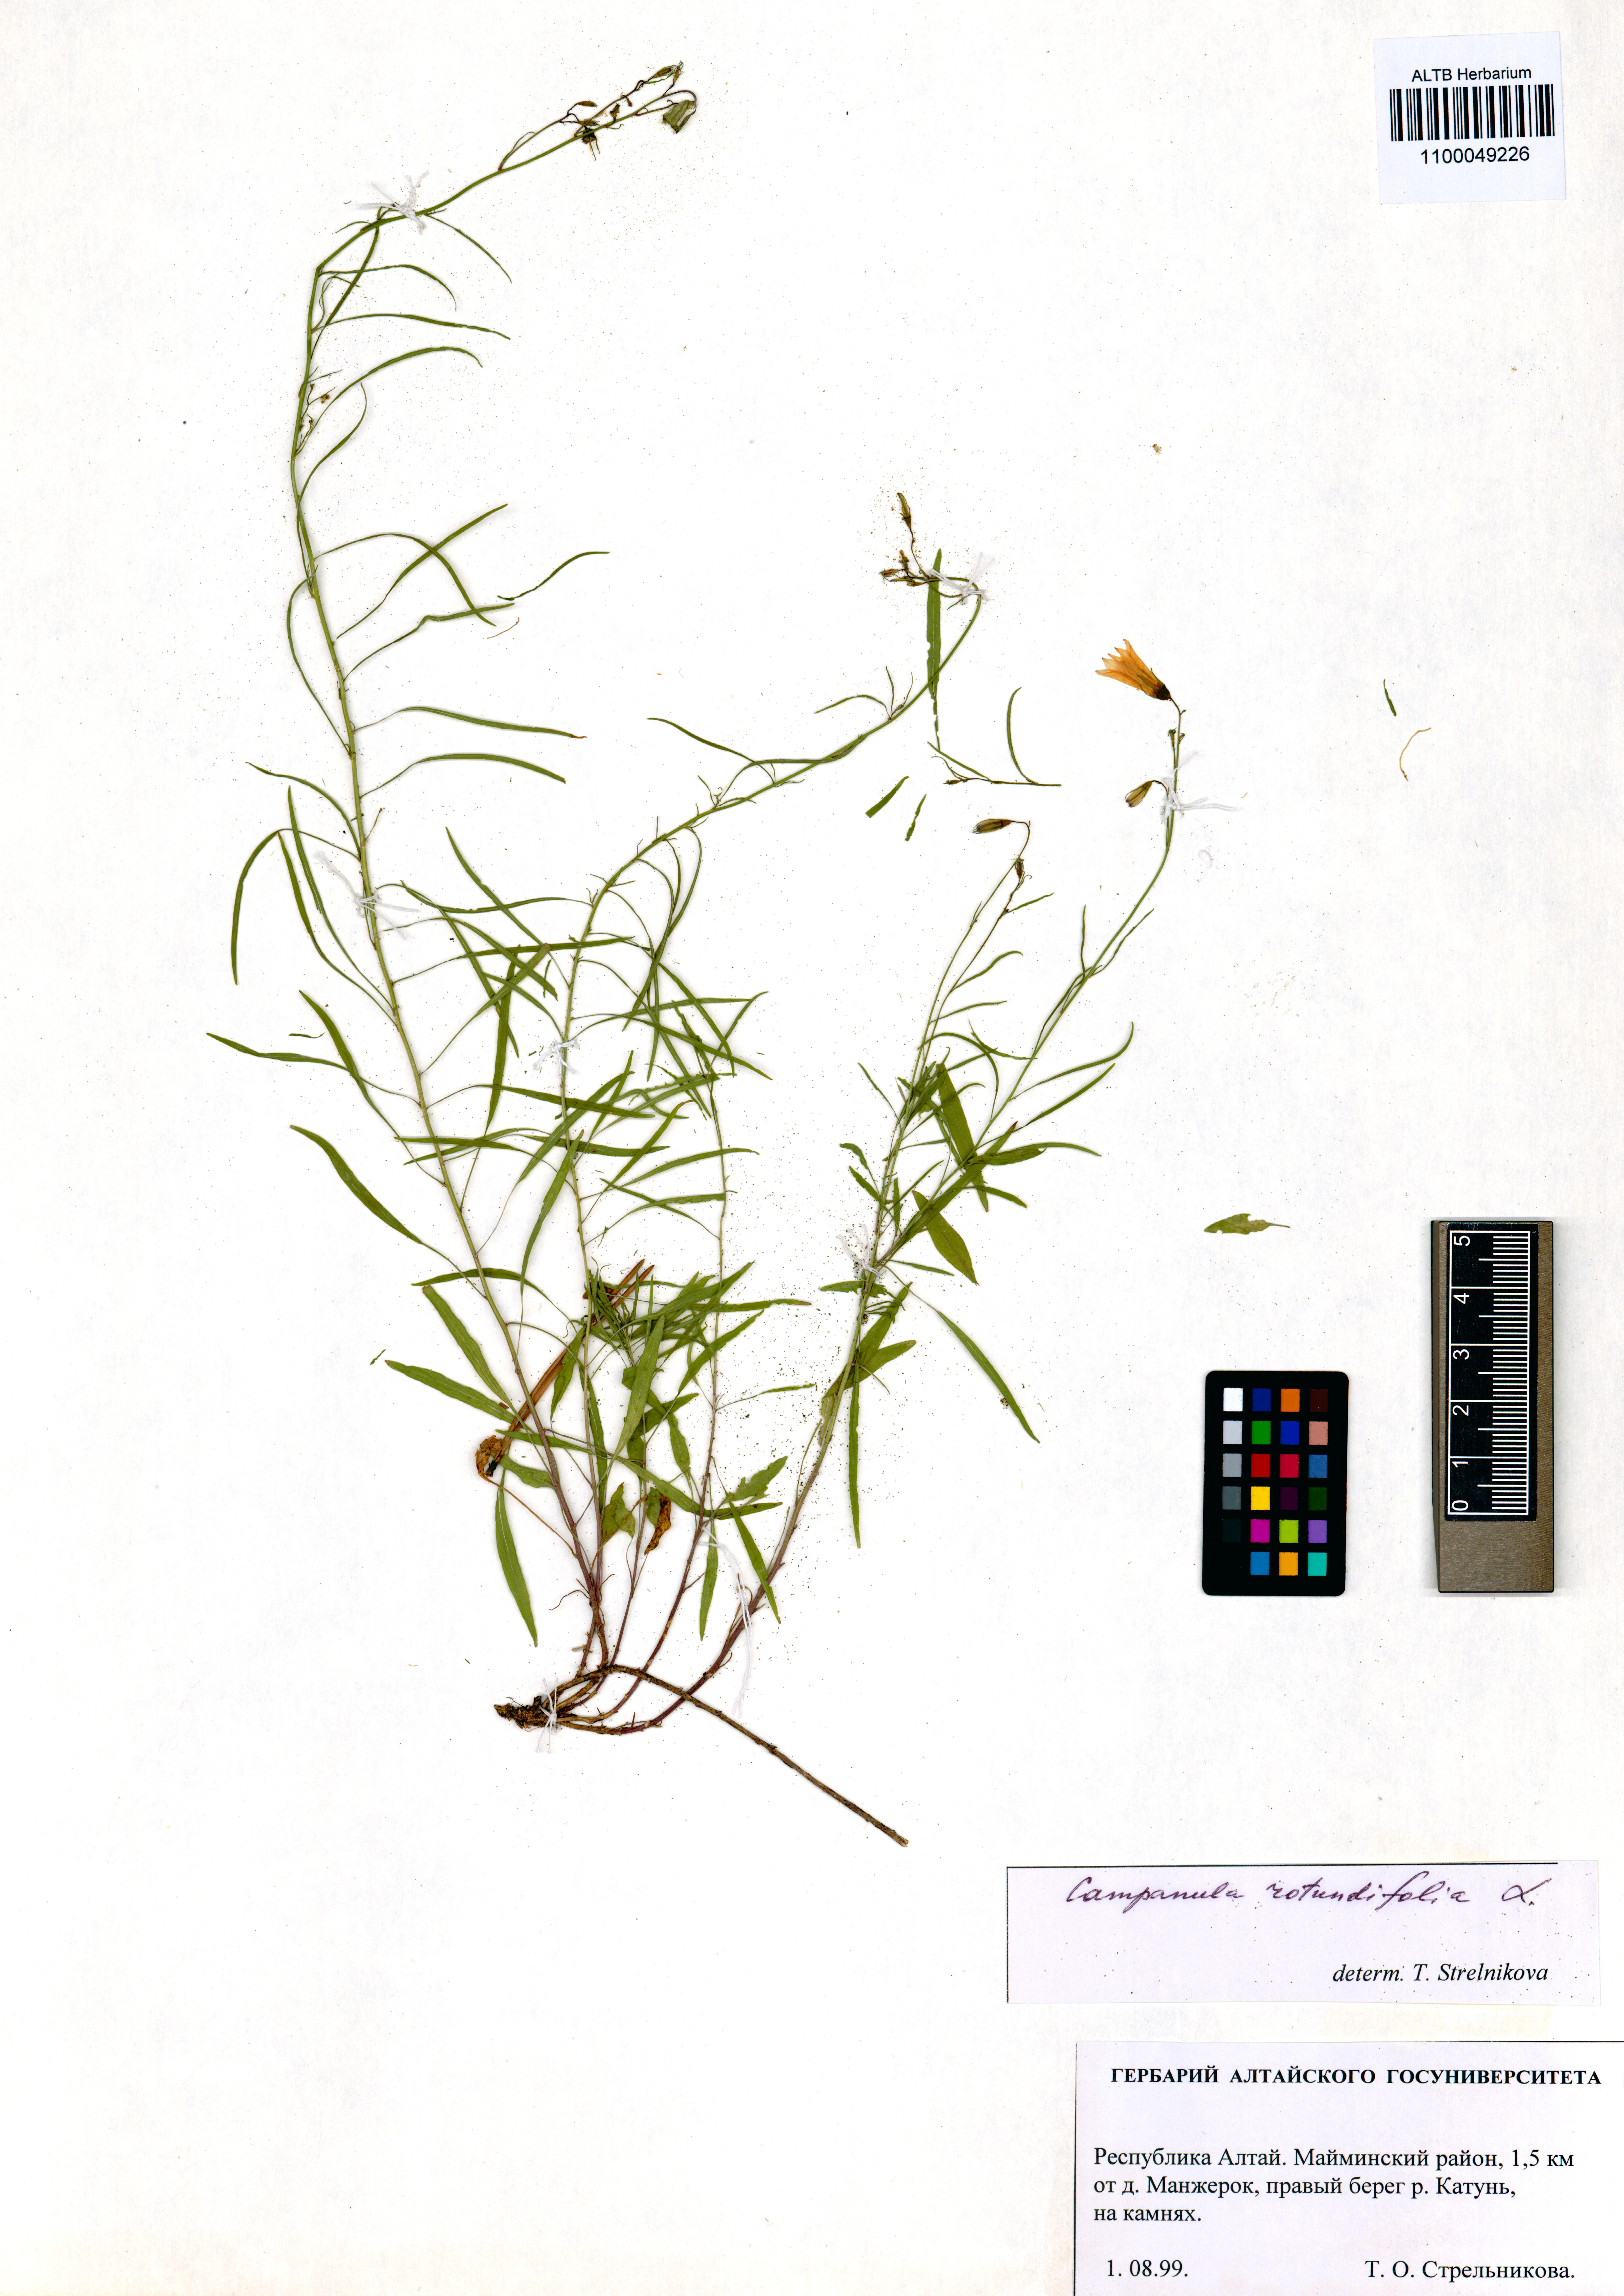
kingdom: Plantae
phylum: Tracheophyta
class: Magnoliopsida
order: Asterales
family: Campanulaceae
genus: Campanula
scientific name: Campanula rotundifolia
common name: Harebell
